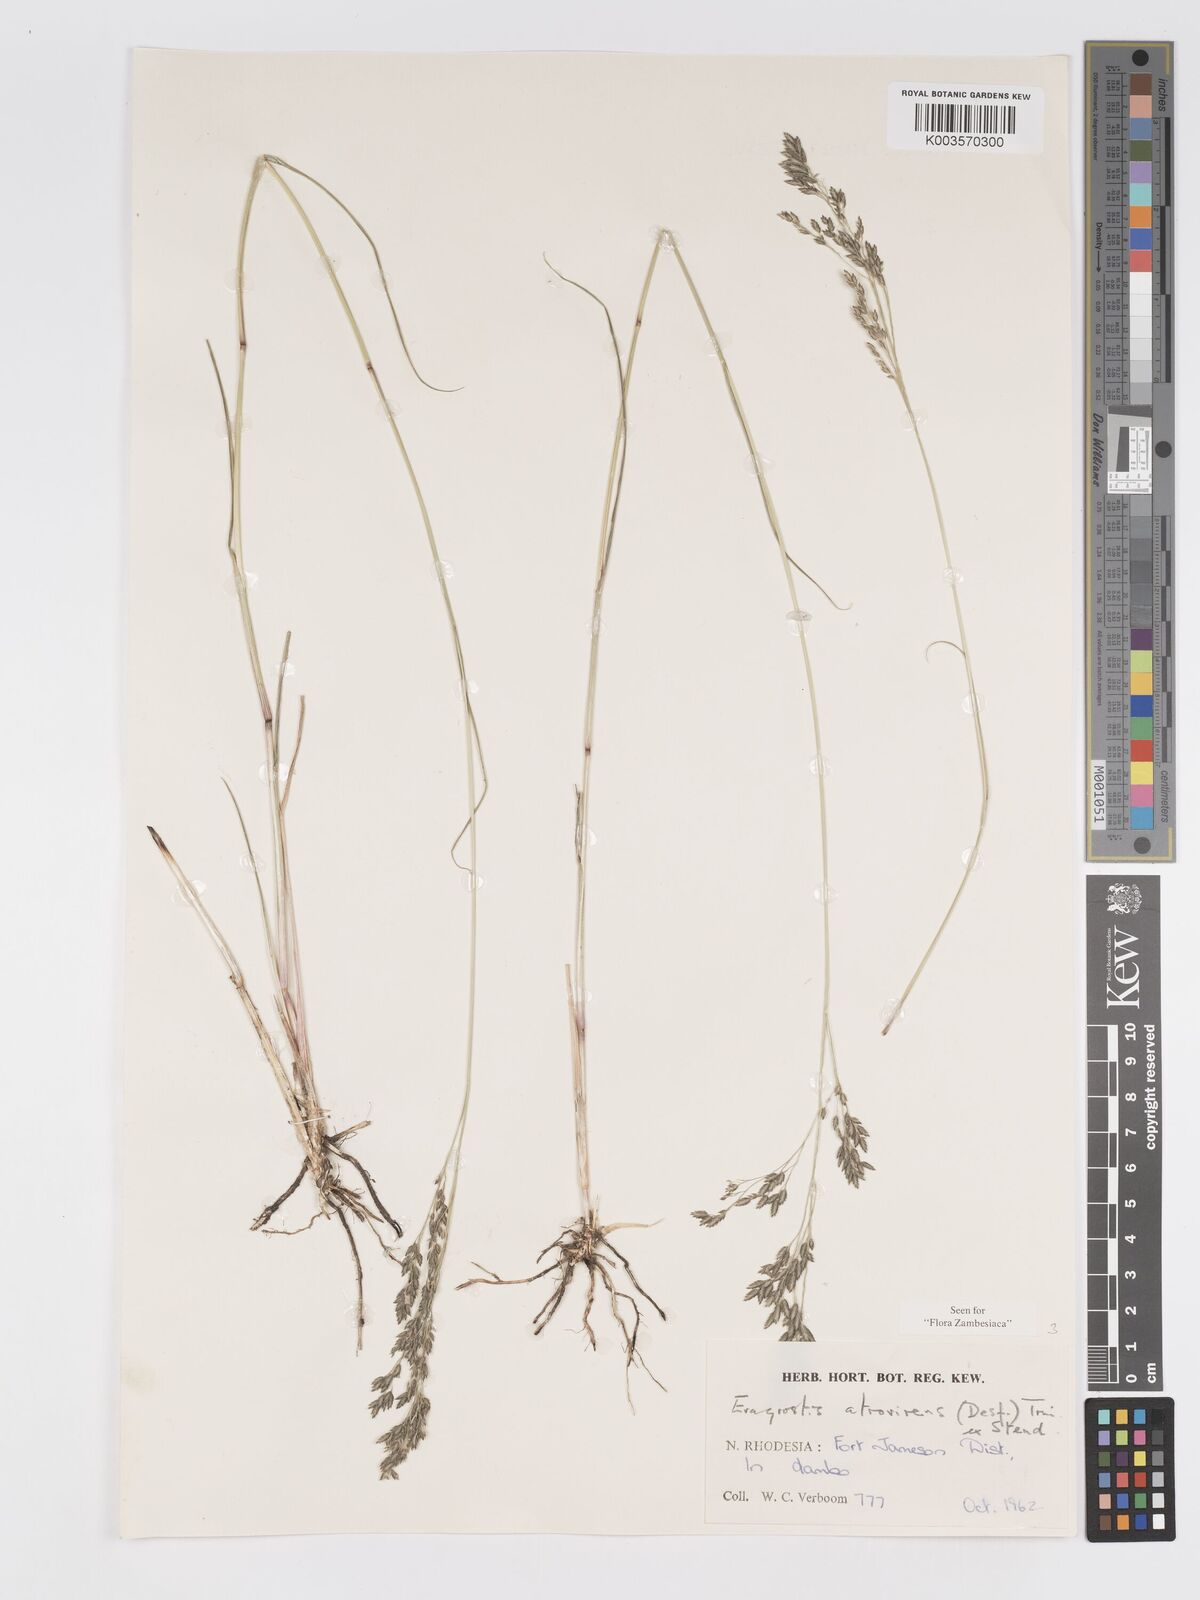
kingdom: Plantae
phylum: Tracheophyta
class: Liliopsida
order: Poales
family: Poaceae
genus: Eragrostis
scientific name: Eragrostis atrovirens
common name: Thalia lovegrass
